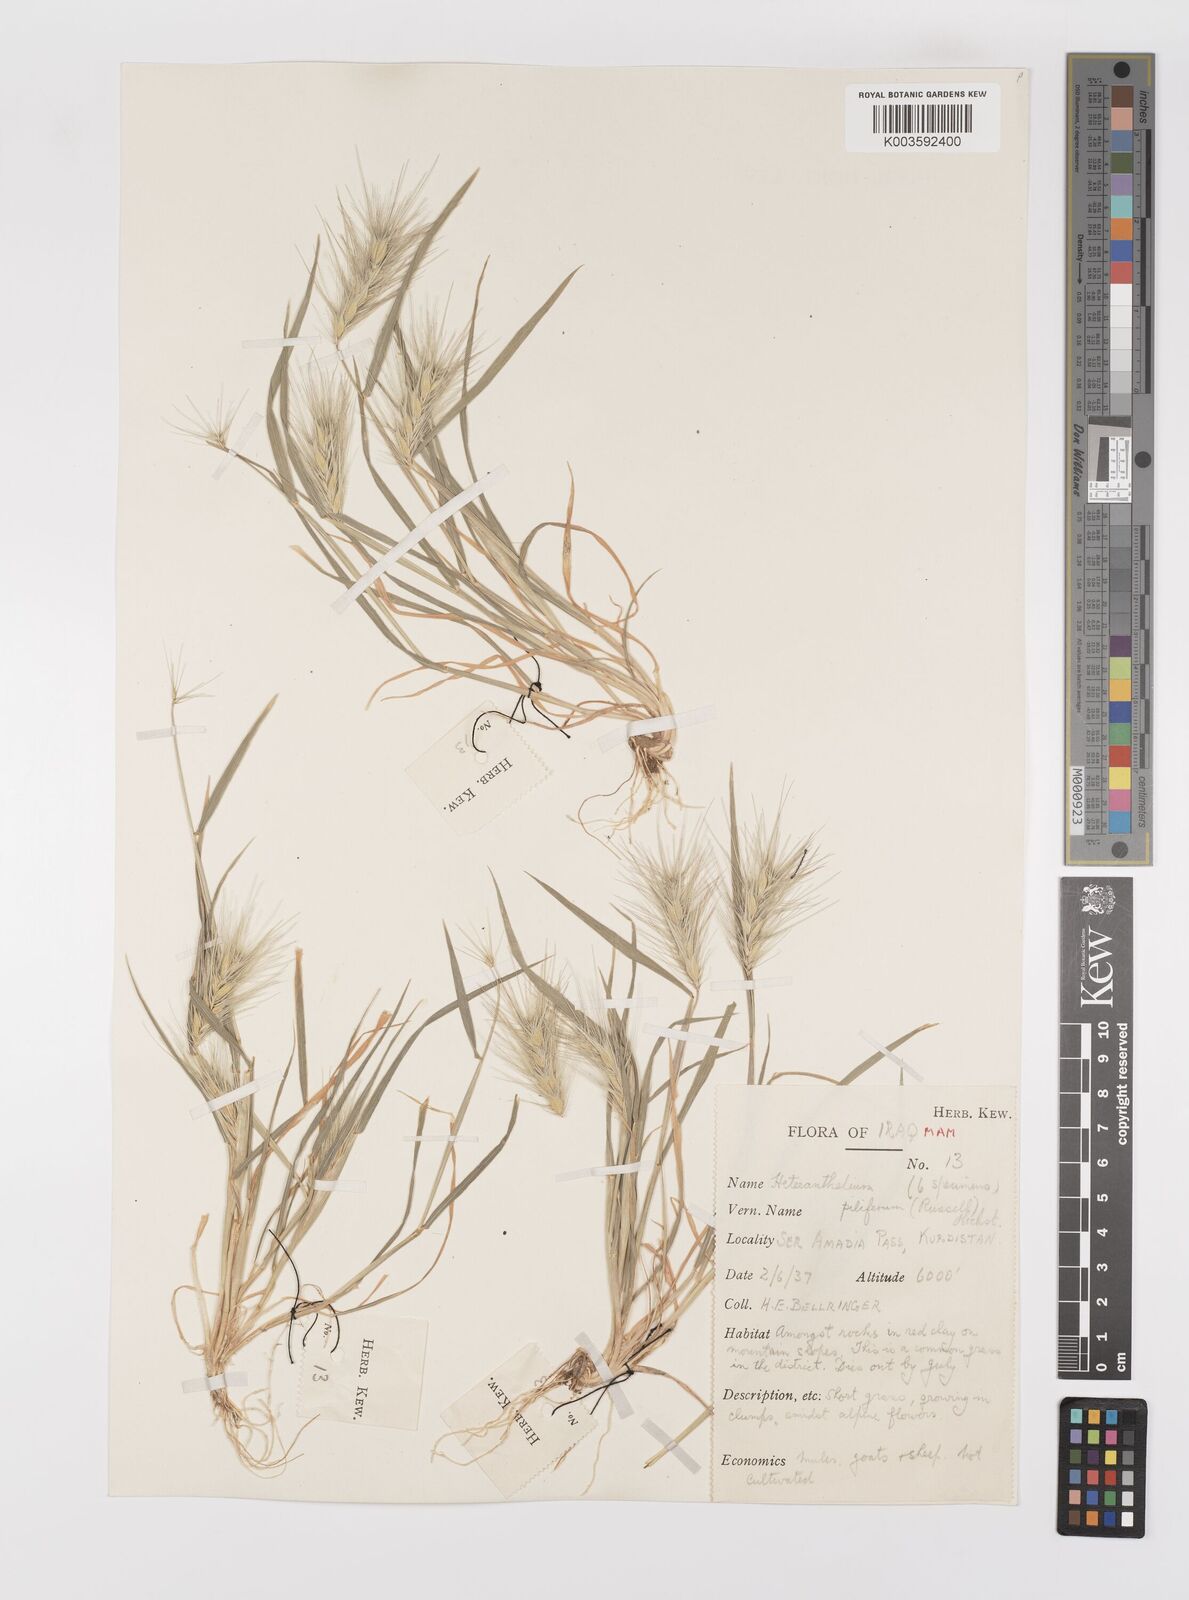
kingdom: Plantae
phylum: Tracheophyta
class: Liliopsida
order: Poales
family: Poaceae
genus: Heteranthelium
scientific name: Heteranthelium piliferum
